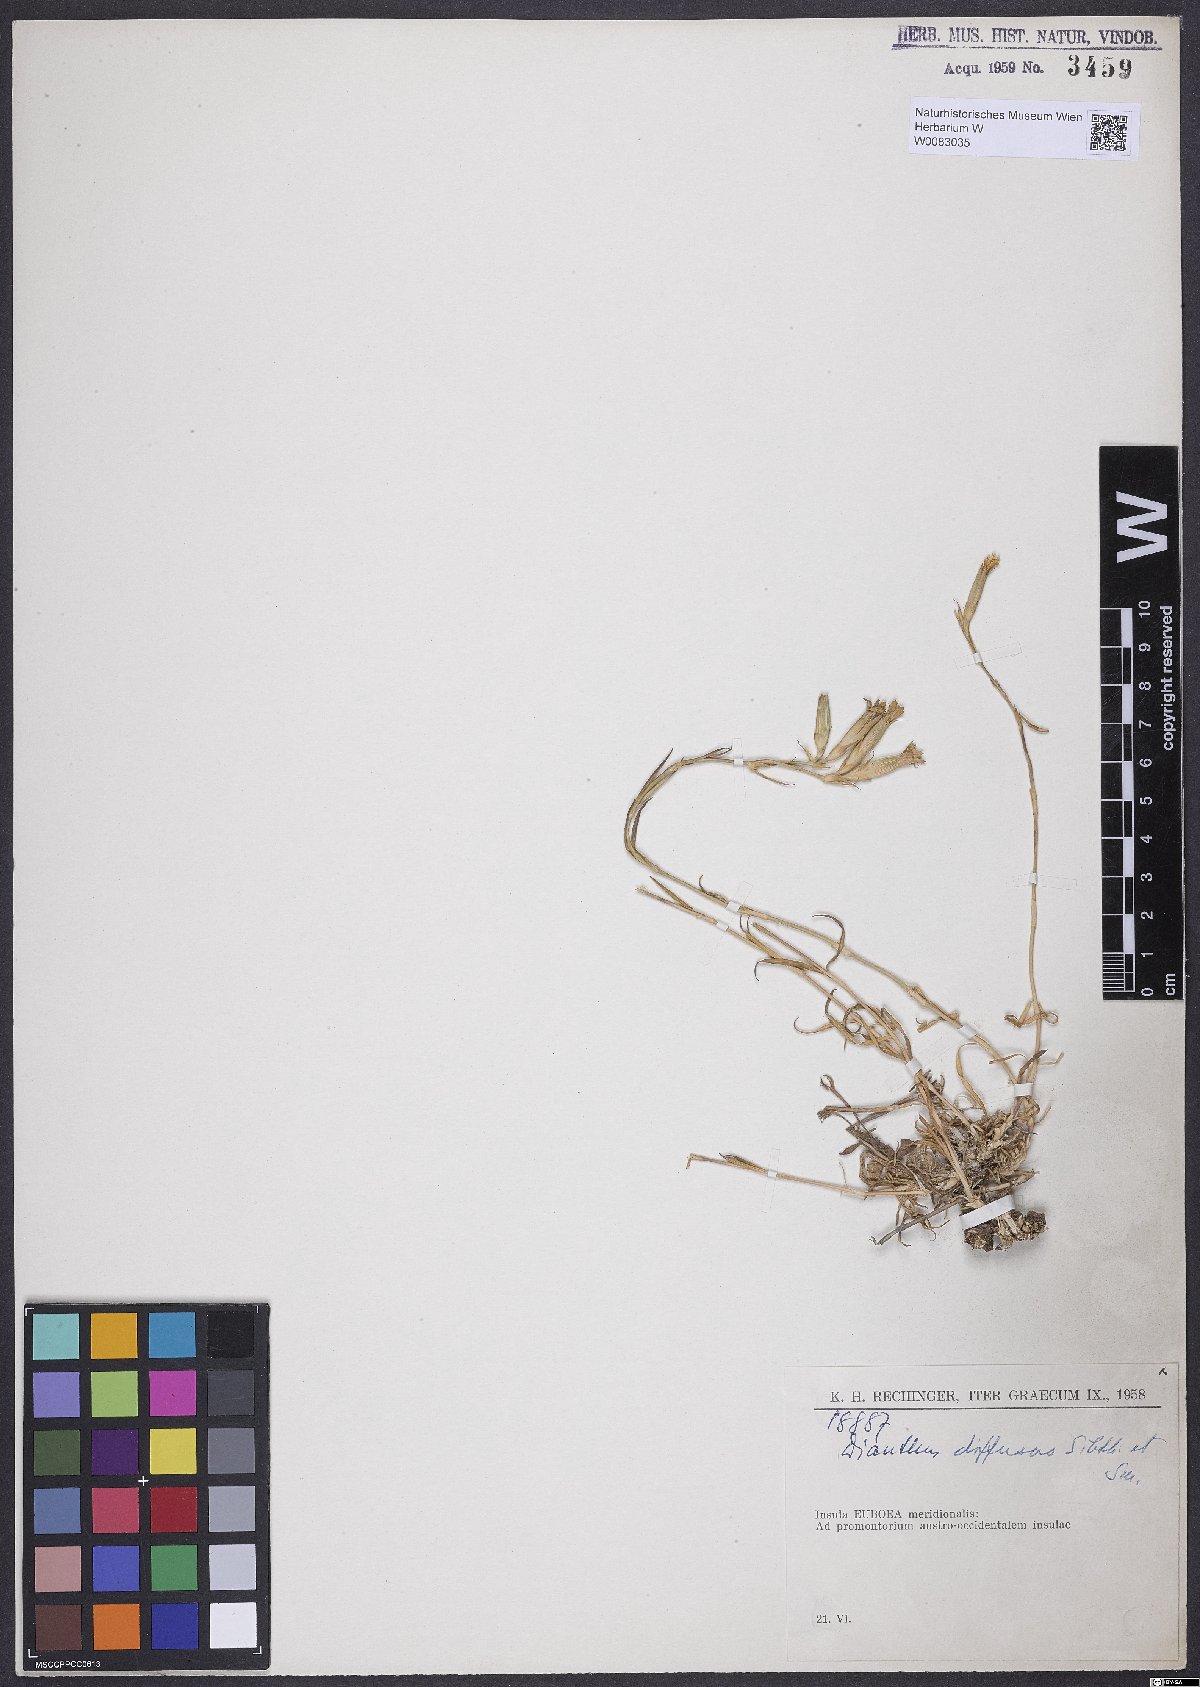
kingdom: Plantae
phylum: Tracheophyta
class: Magnoliopsida
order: Caryophyllales
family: Caryophyllaceae
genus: Dianthus
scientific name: Dianthus diffusus
